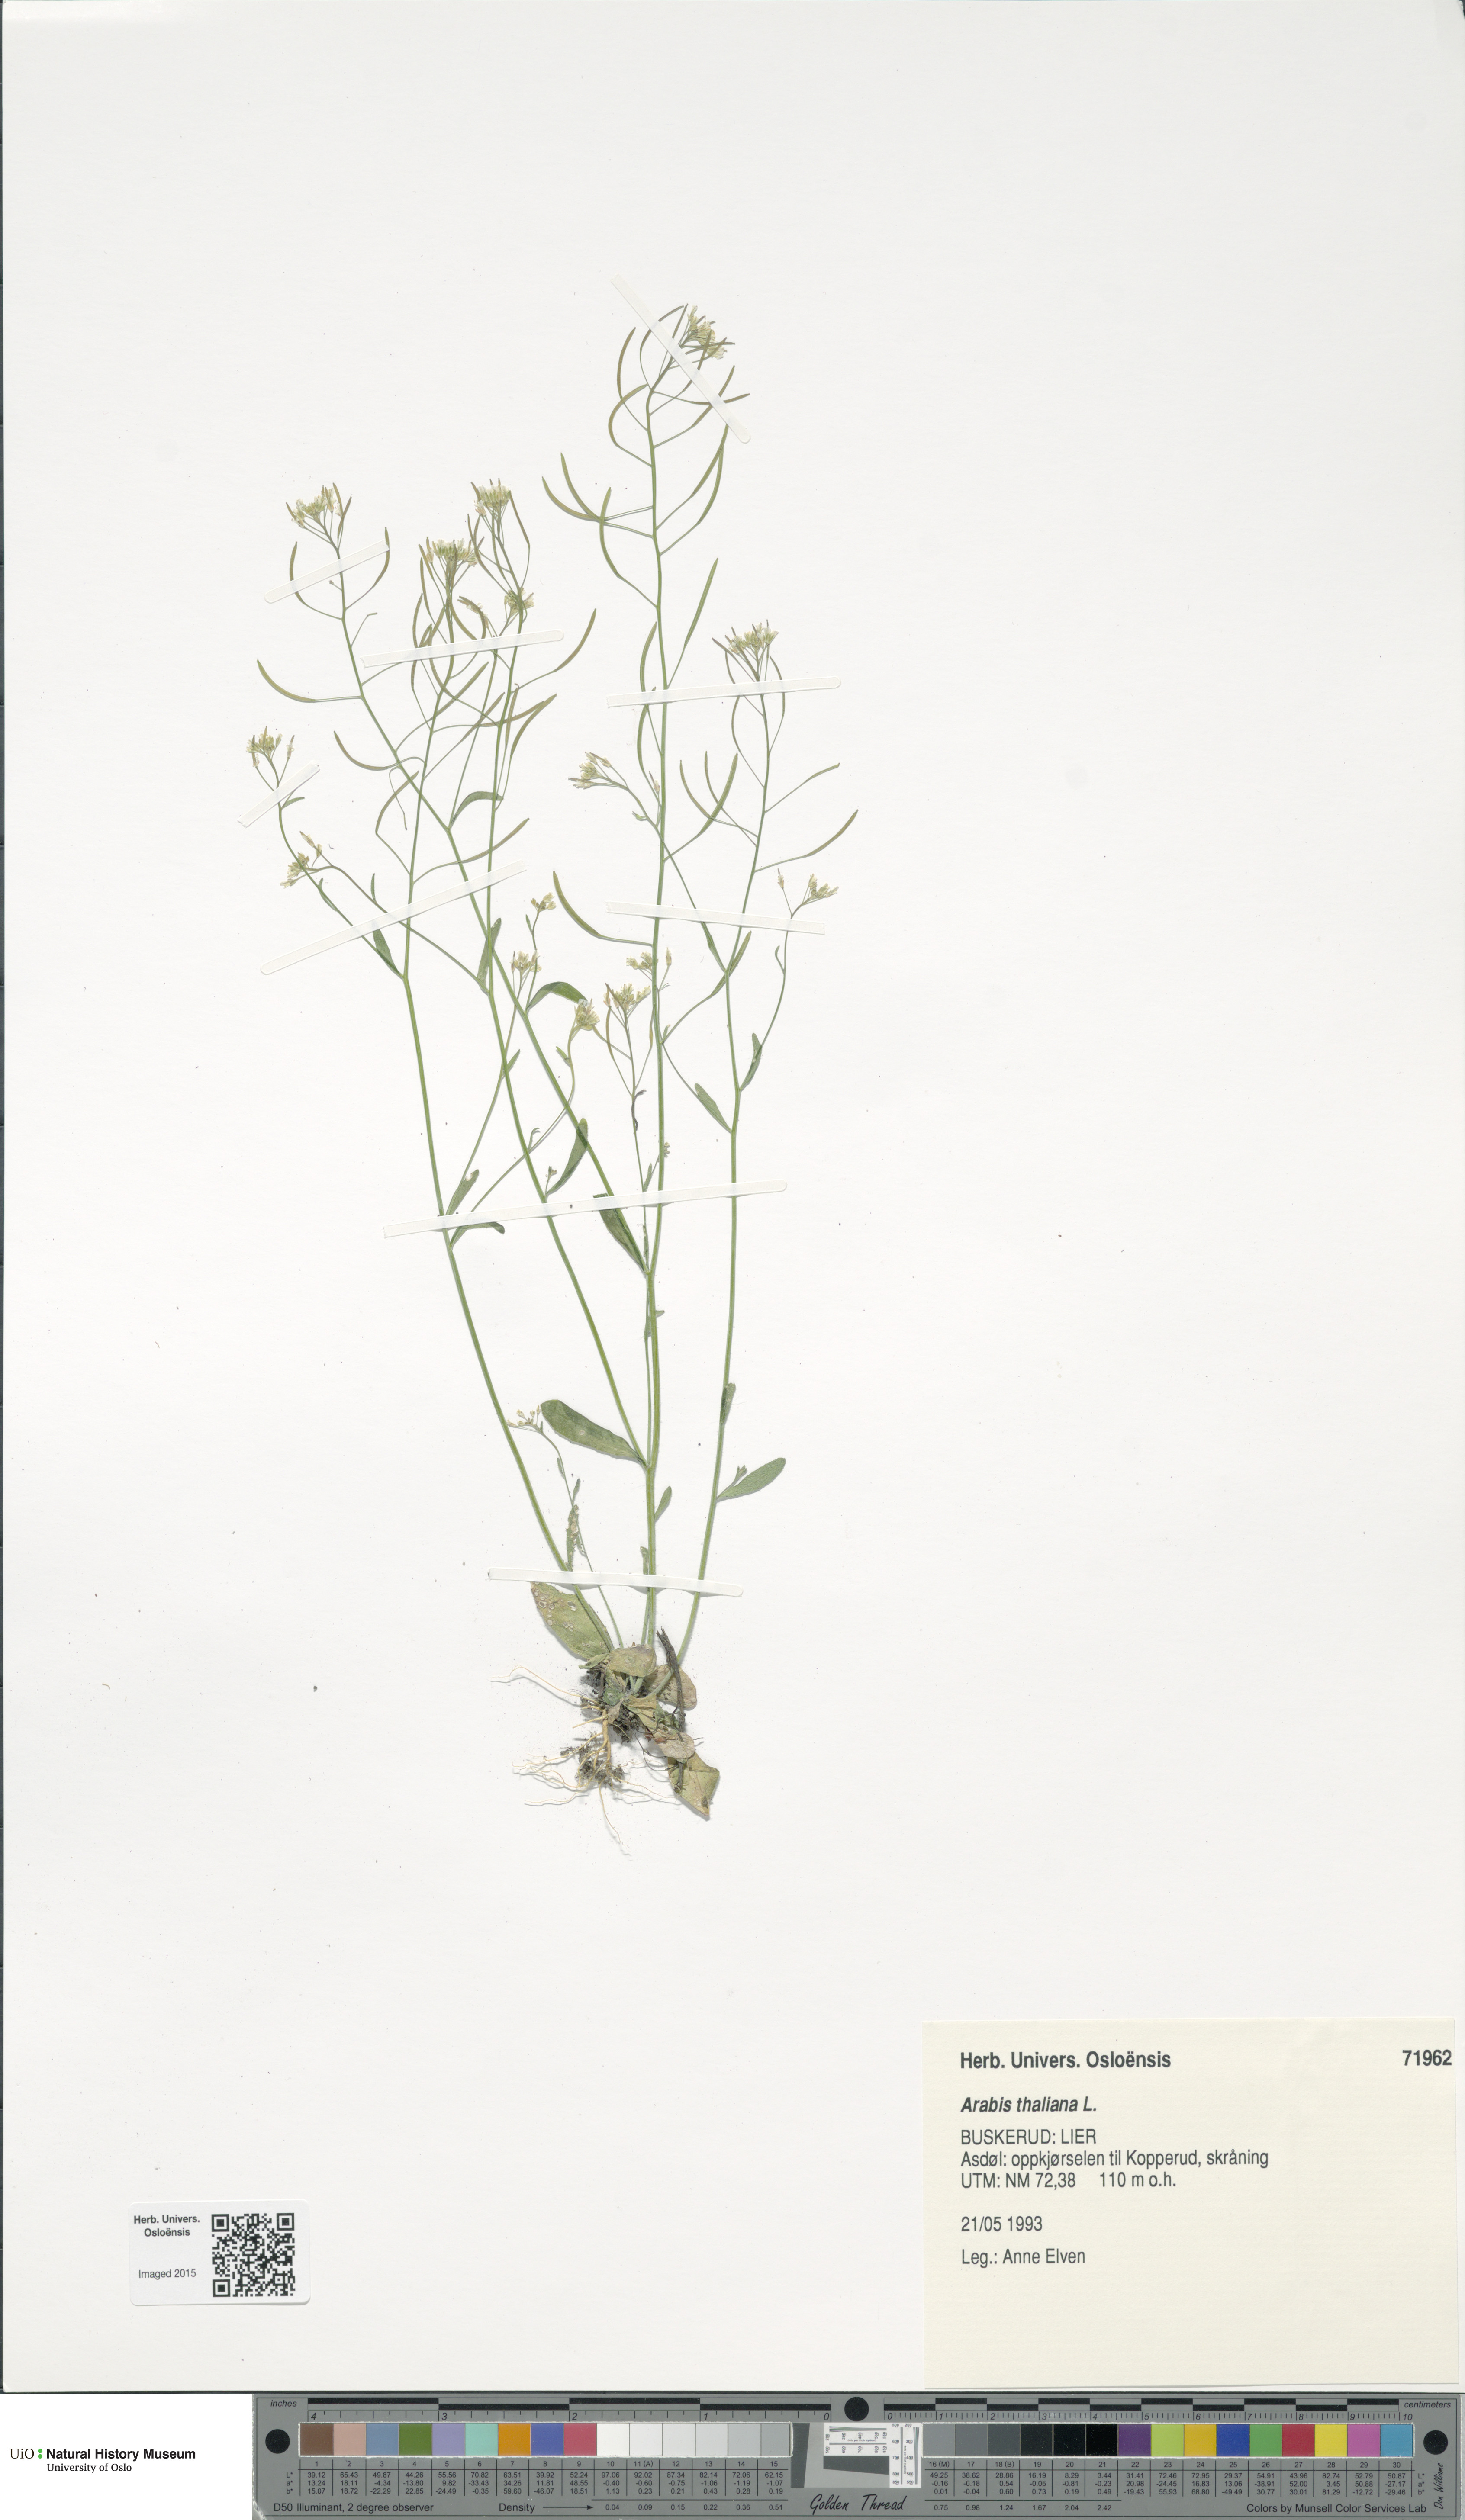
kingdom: Plantae
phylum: Tracheophyta
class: Magnoliopsida
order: Brassicales
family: Brassicaceae
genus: Arabidopsis
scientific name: Arabidopsis thaliana
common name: Thale cress
